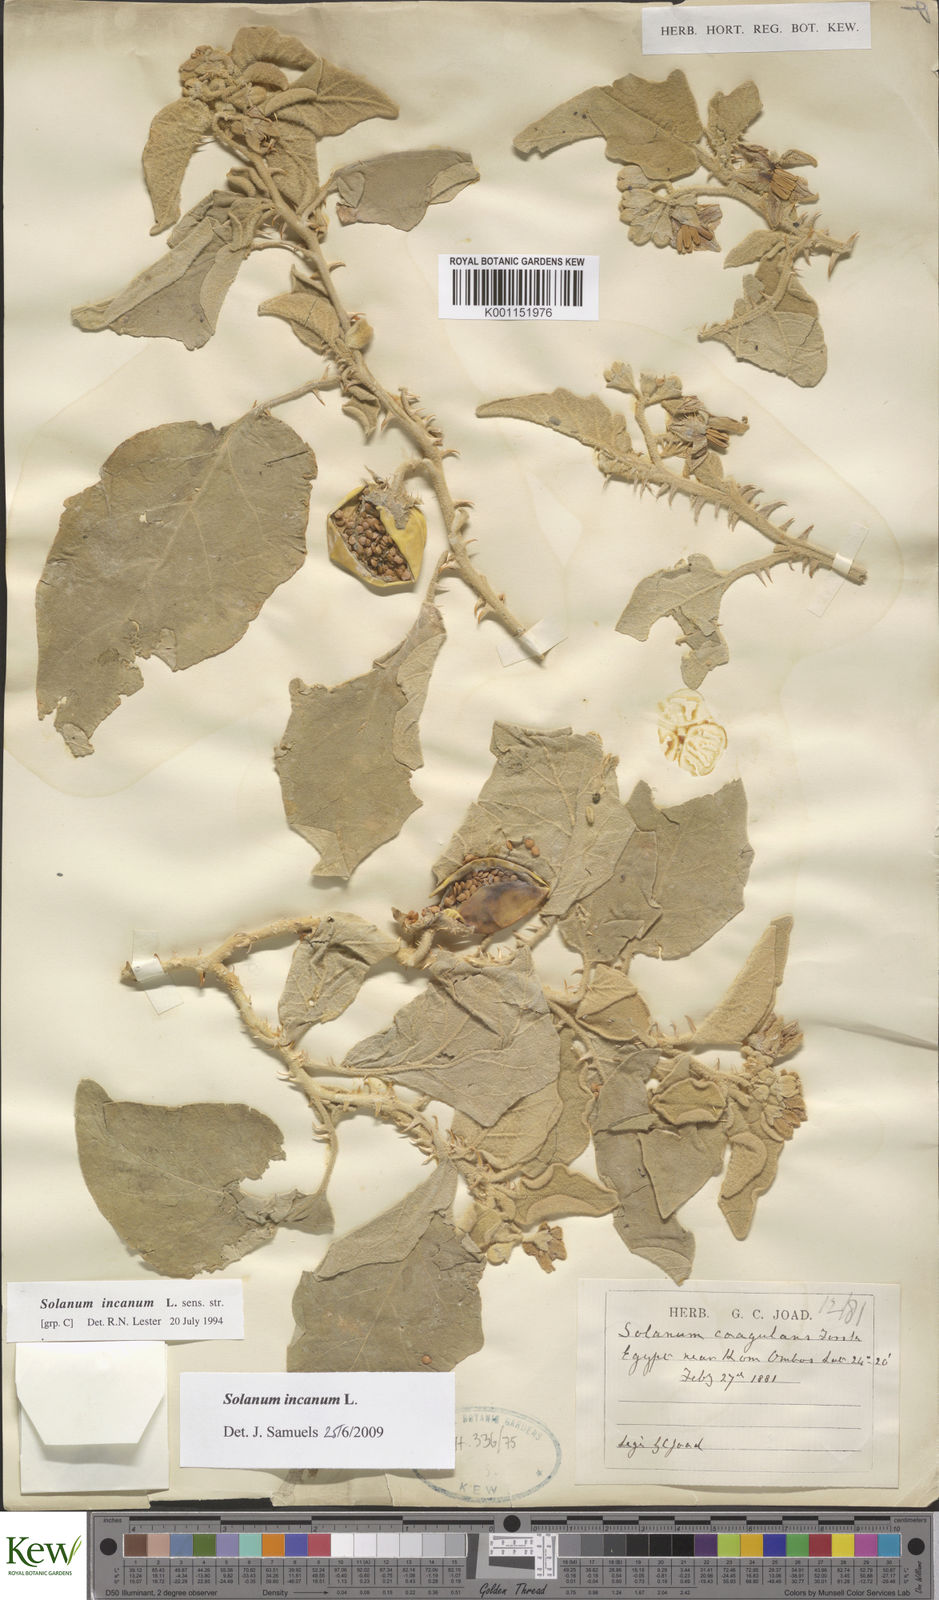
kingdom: Plantae
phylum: Tracheophyta
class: Magnoliopsida
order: Solanales
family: Solanaceae
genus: Solanum
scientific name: Solanum incanum
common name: Bitter apple
